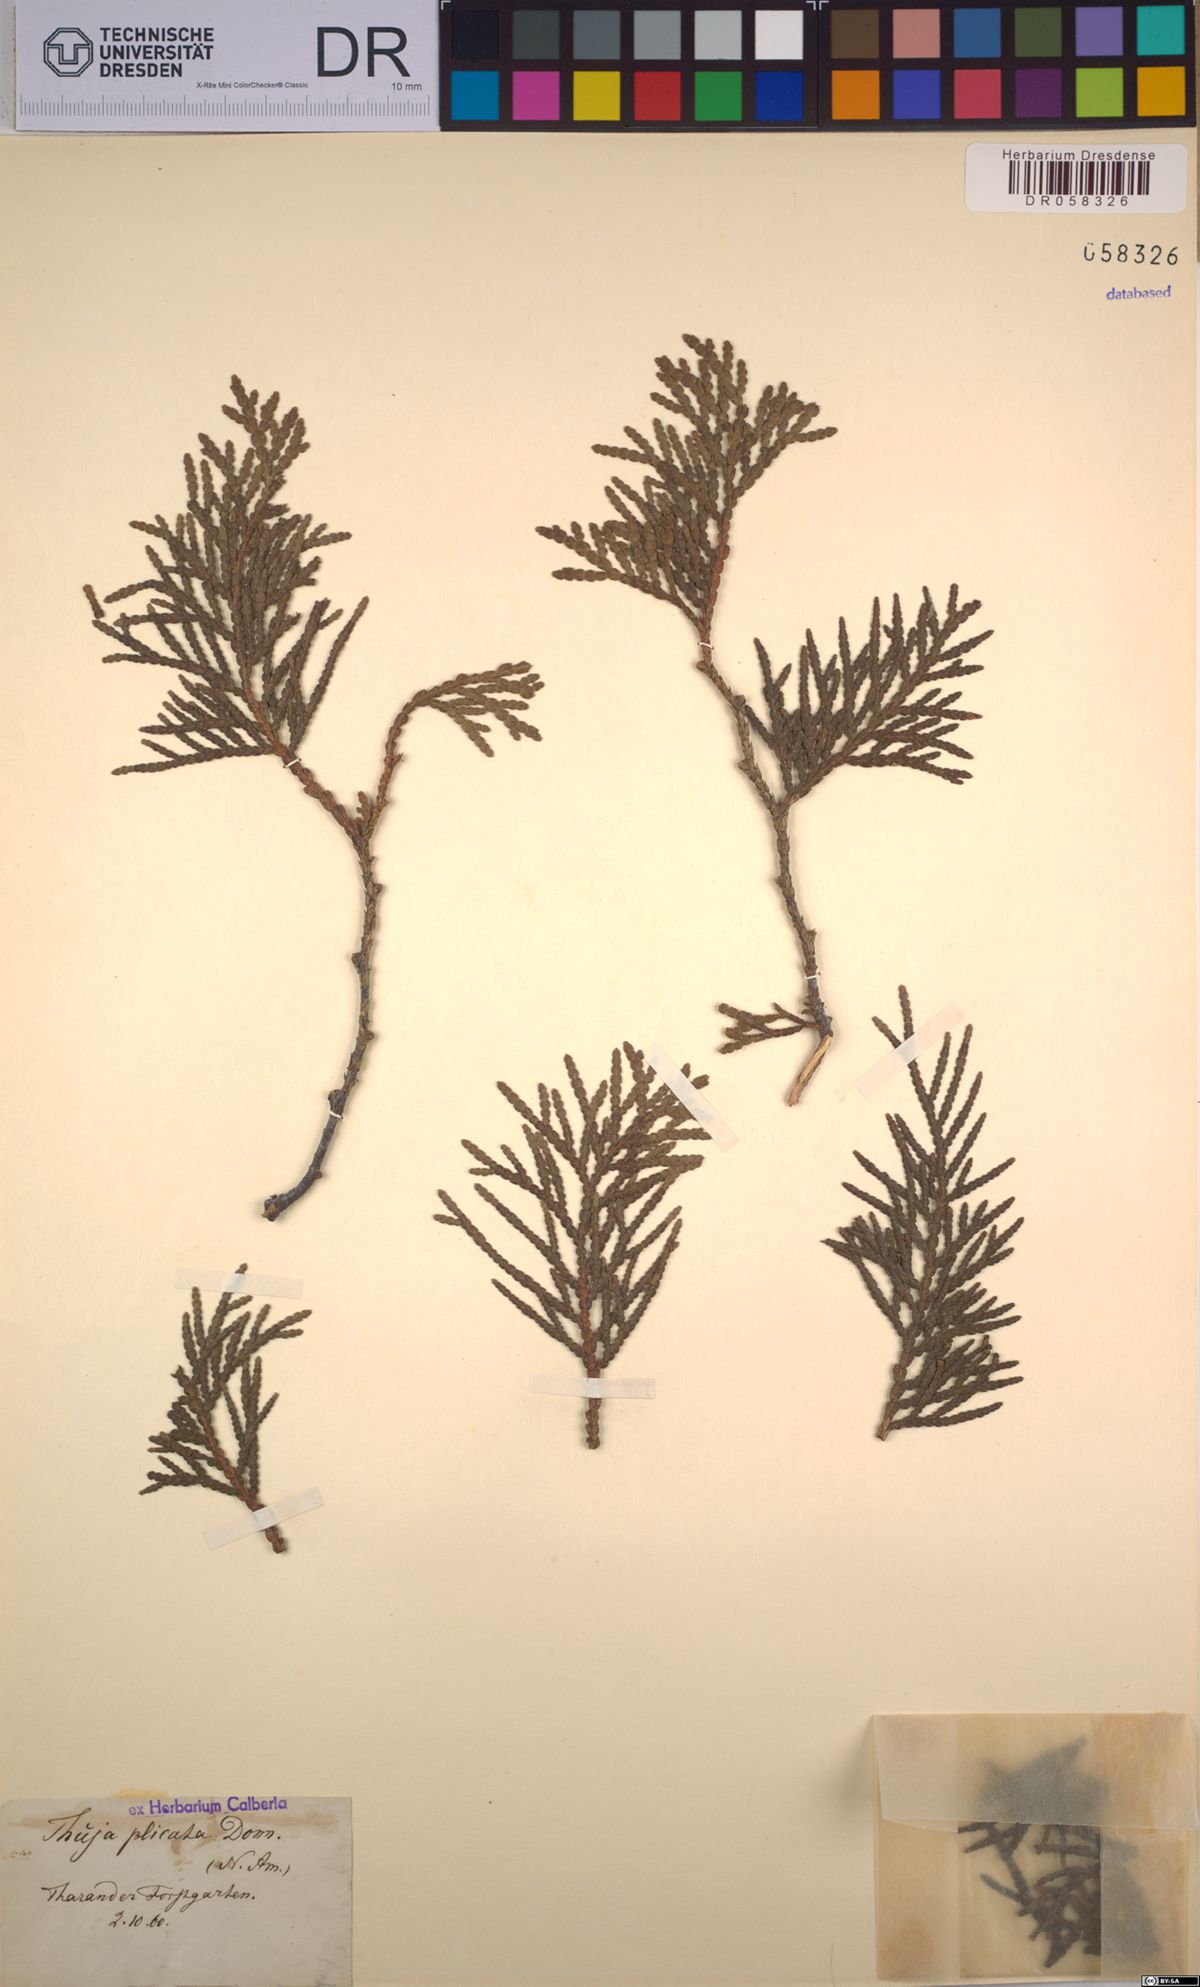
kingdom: Plantae
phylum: Tracheophyta
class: Pinopsida
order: Pinales
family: Cupressaceae
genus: Thuja
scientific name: Thuja plicata
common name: Western red-cedar
